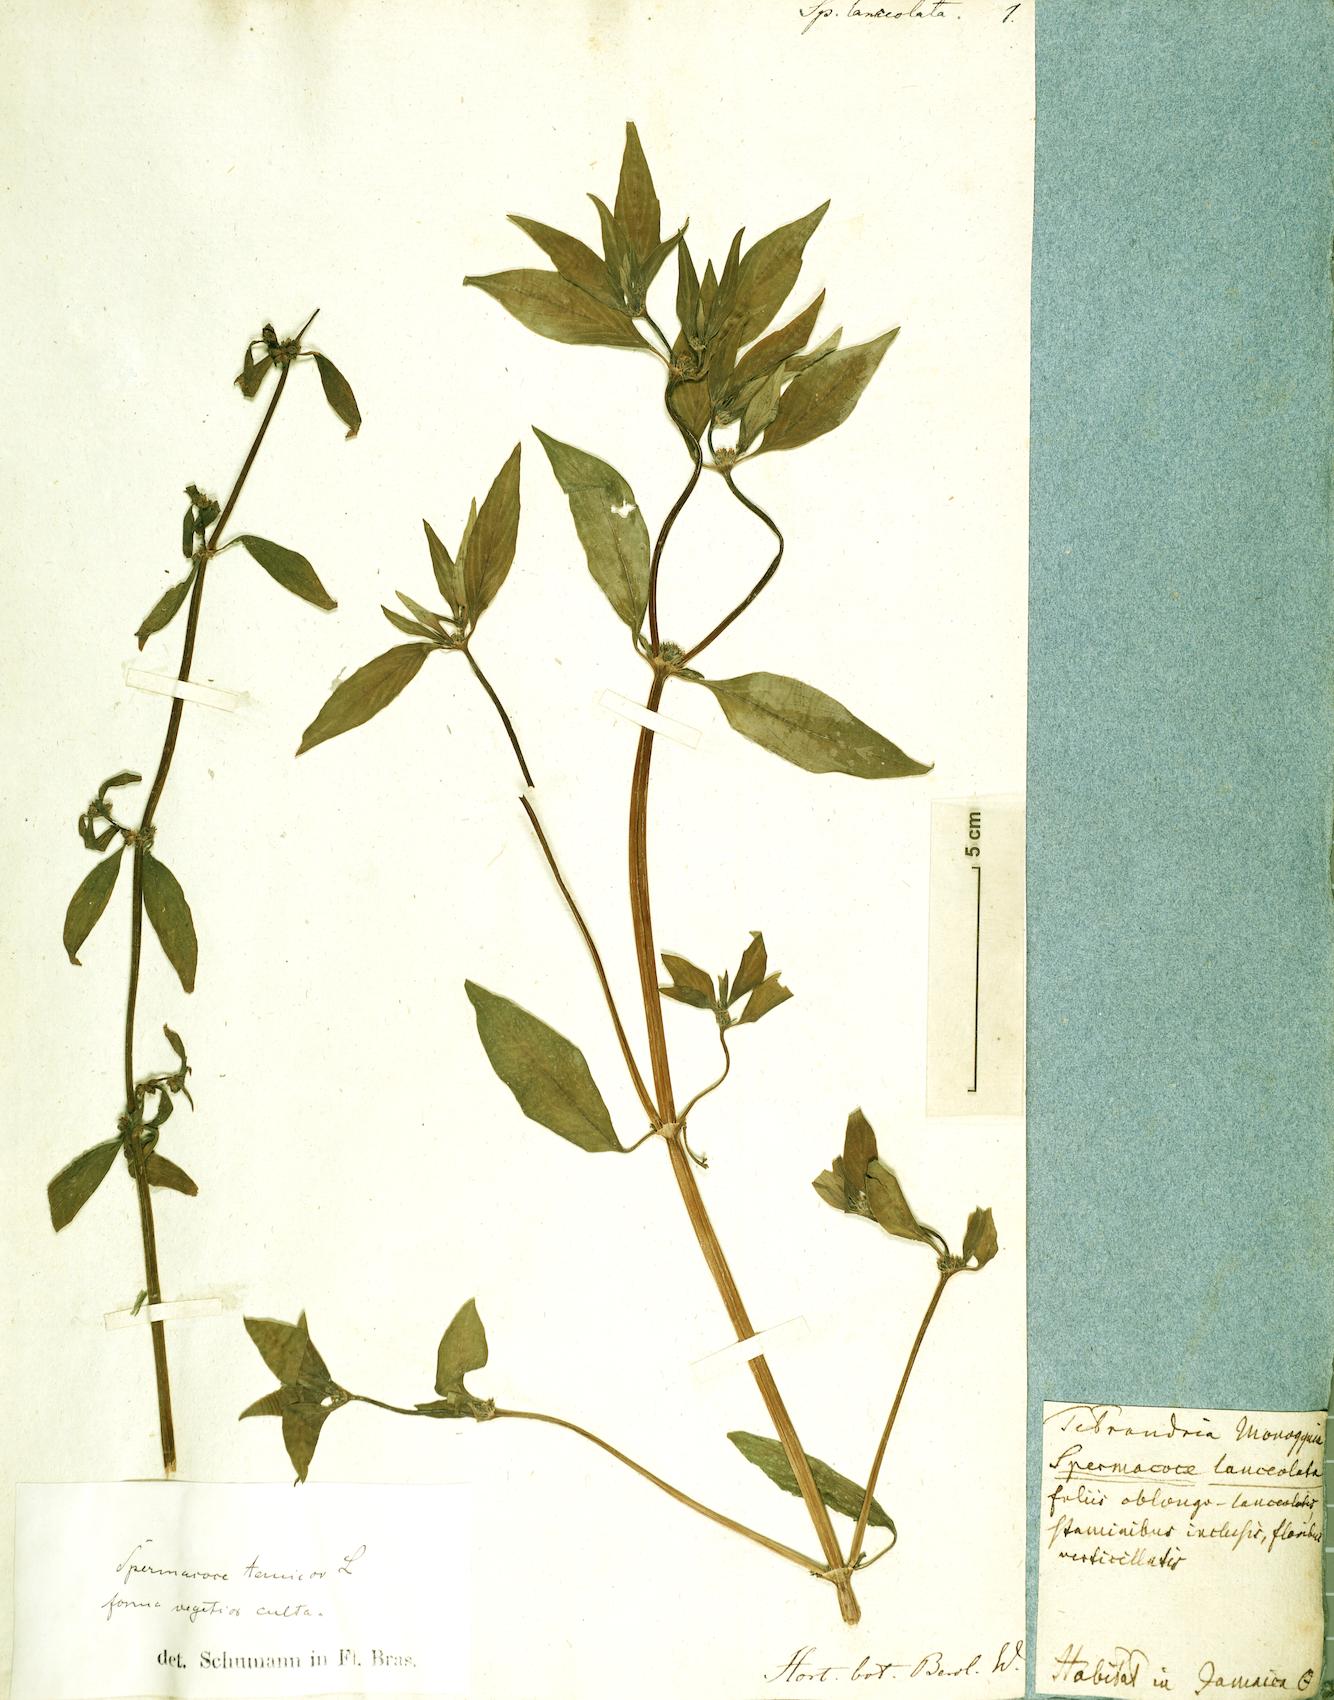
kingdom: Plantae
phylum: Tracheophyta
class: Magnoliopsida
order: Gentianales
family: Rubiaceae
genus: Spermacoce
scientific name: Spermacoce remota
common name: Woodland false buttonweed
